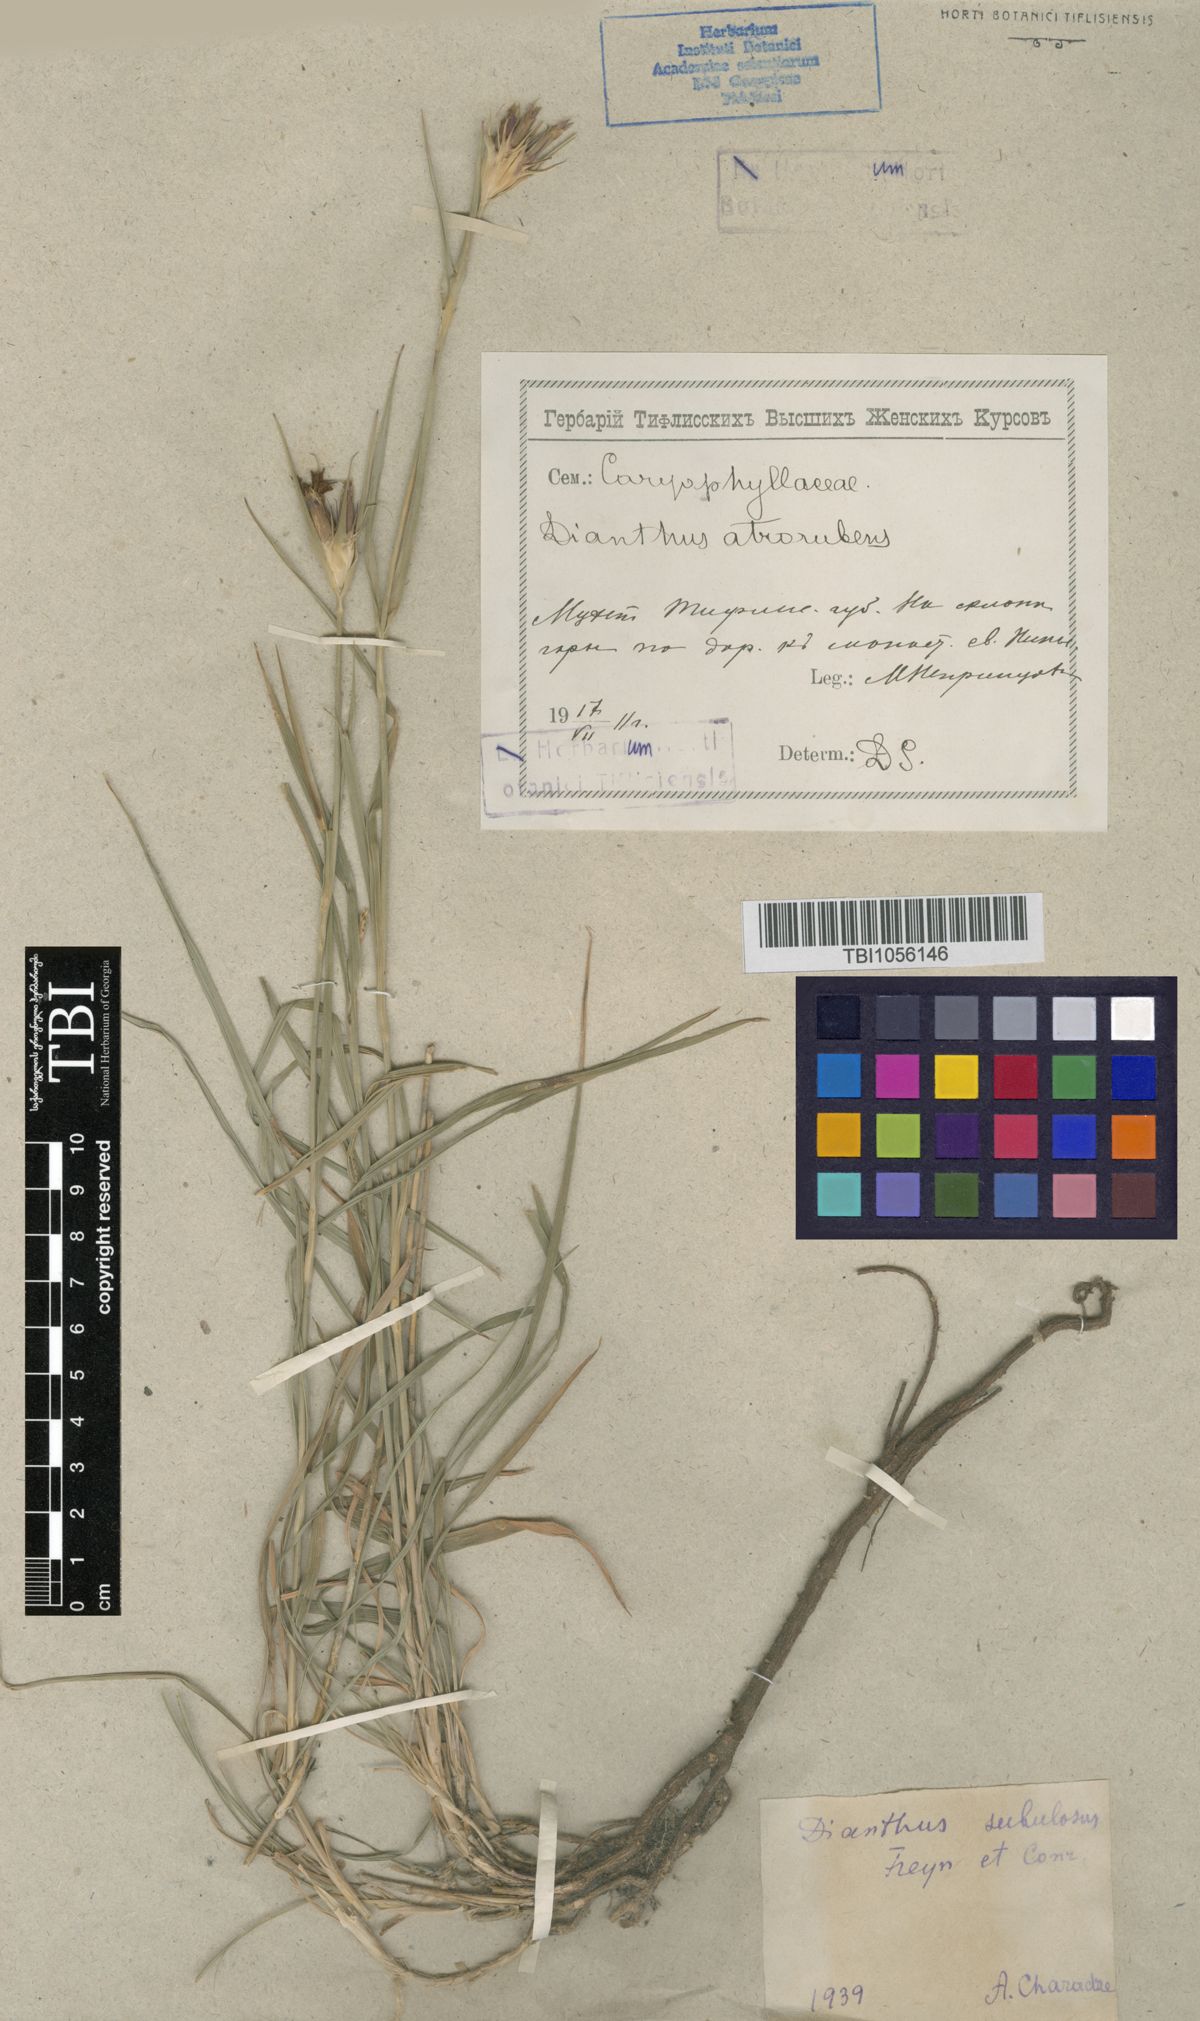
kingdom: Plantae
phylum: Tracheophyta
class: Magnoliopsida
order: Caryophyllales
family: Caryophyllaceae
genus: Dianthus
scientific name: Dianthus subulosus
